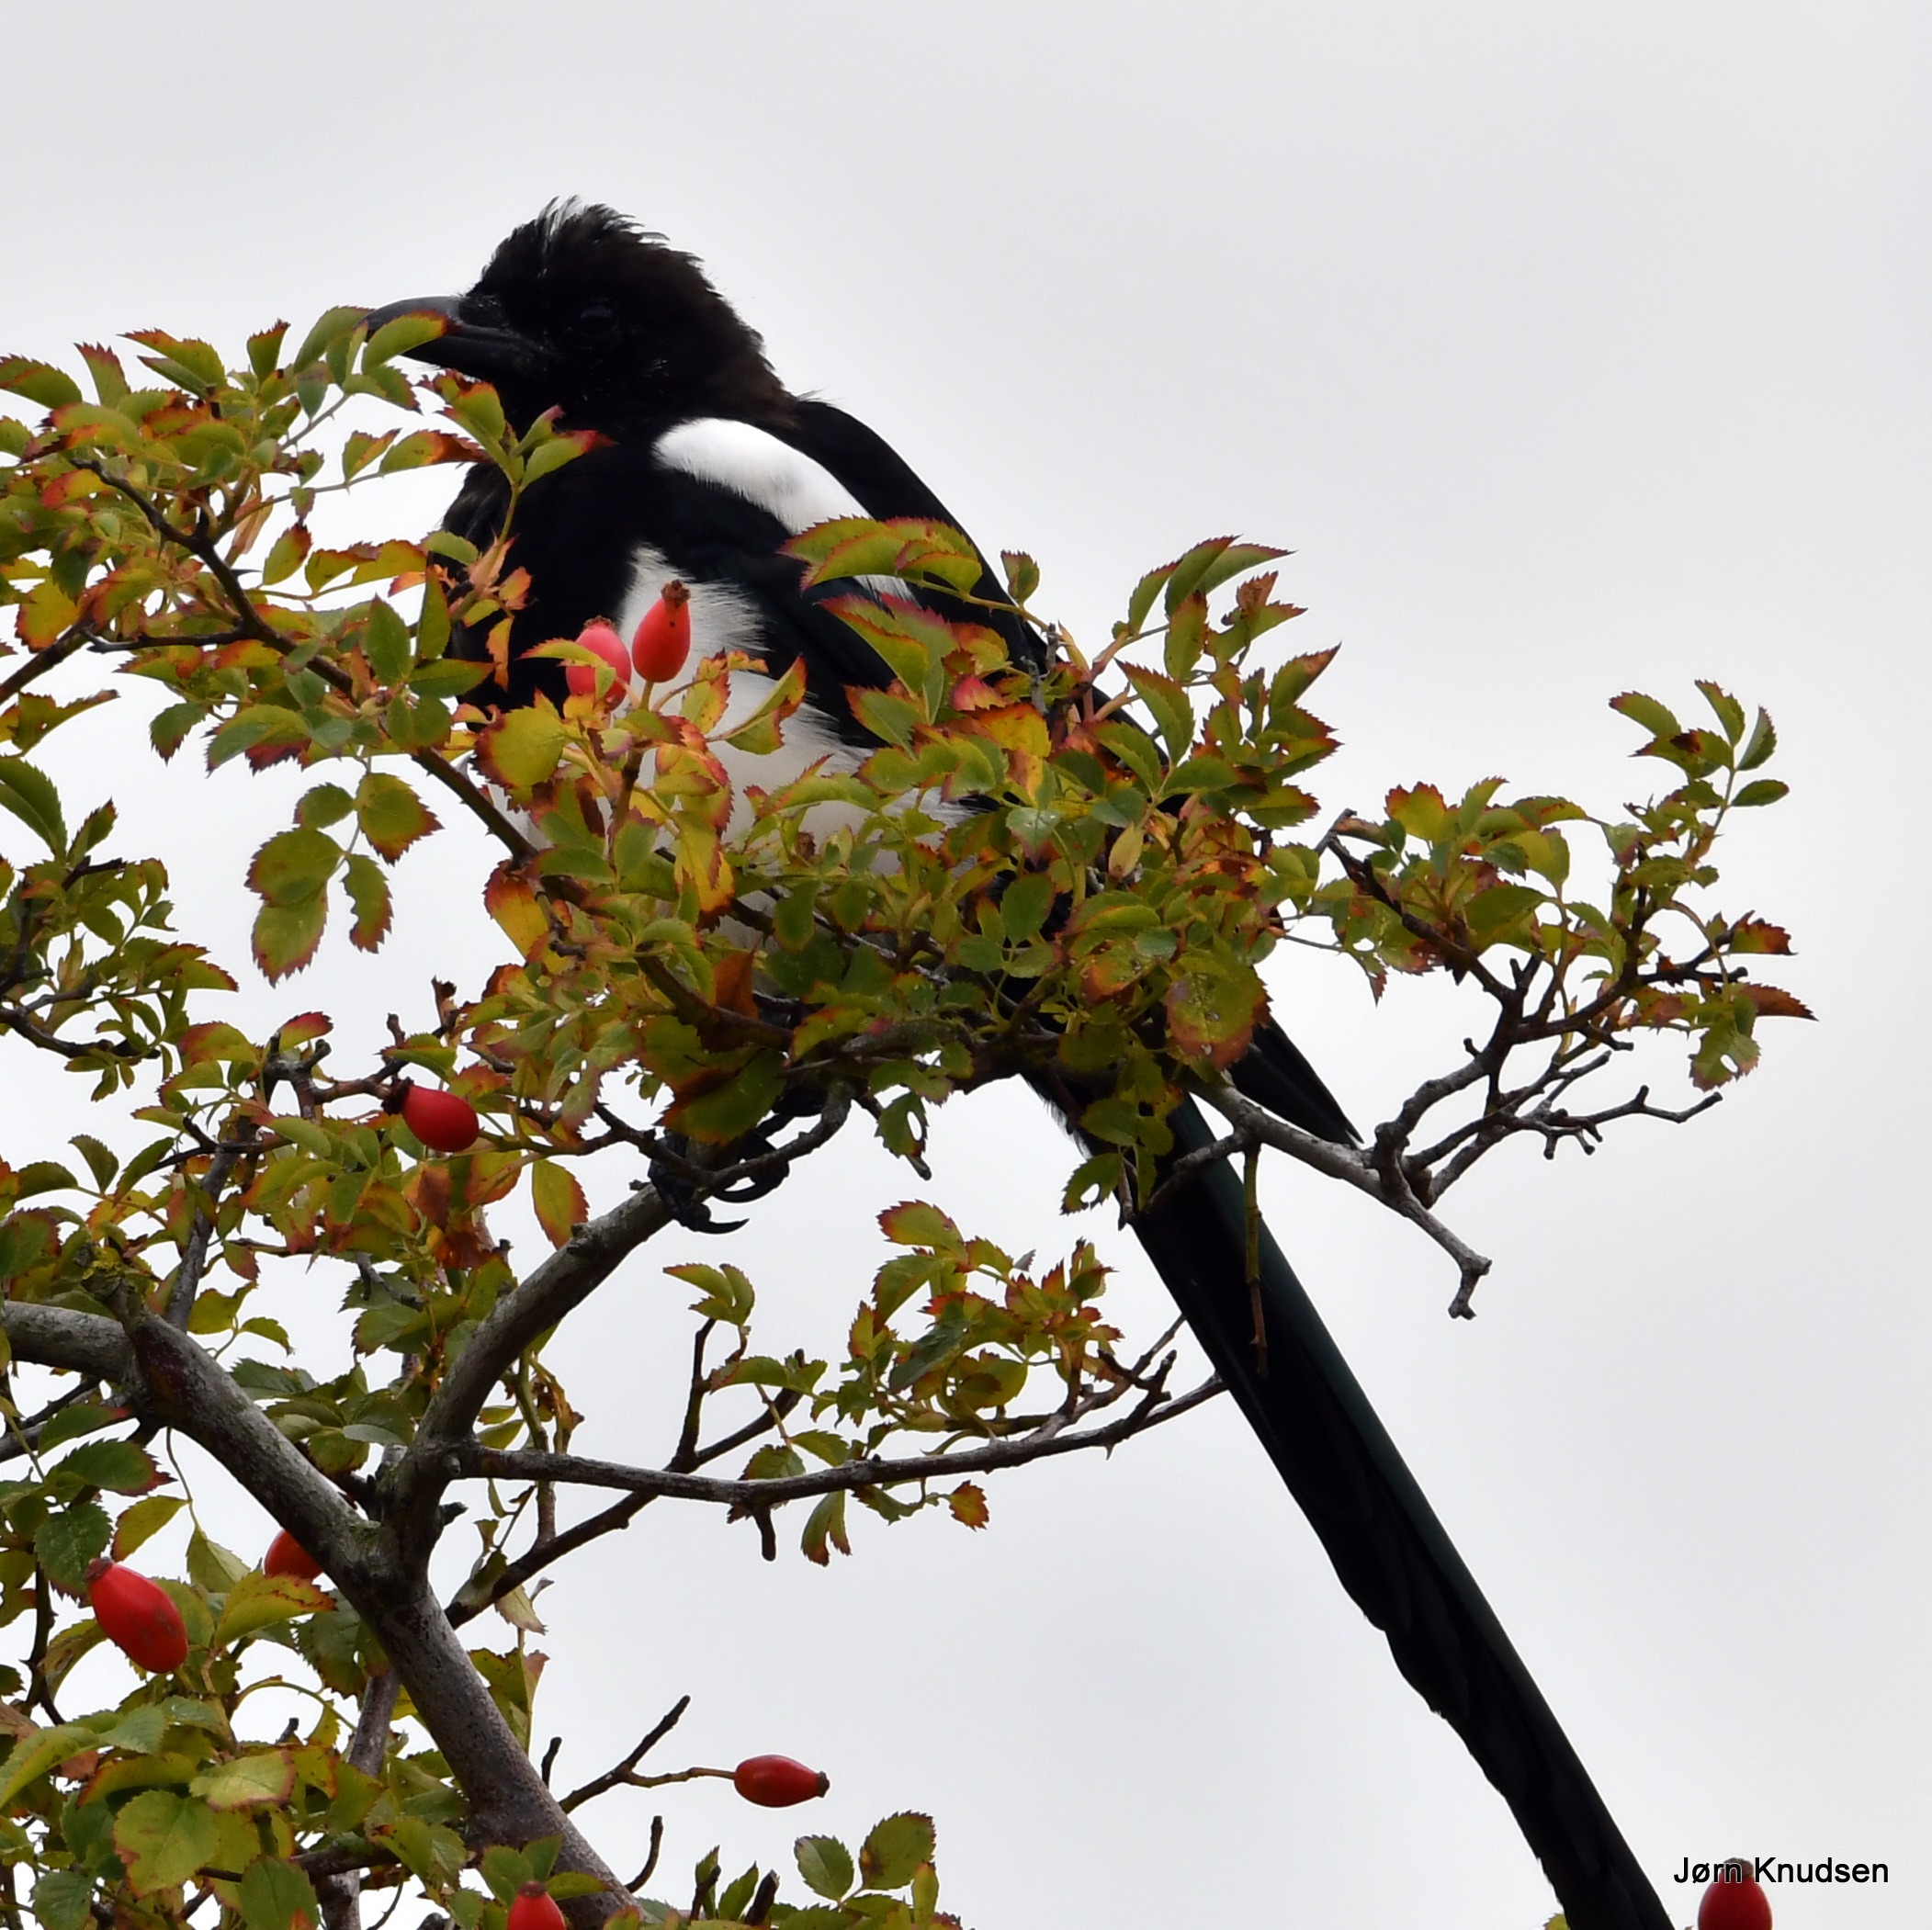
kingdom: Animalia
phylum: Chordata
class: Aves
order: Passeriformes
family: Corvidae
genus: Pica
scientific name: Pica pica
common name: Husskade
